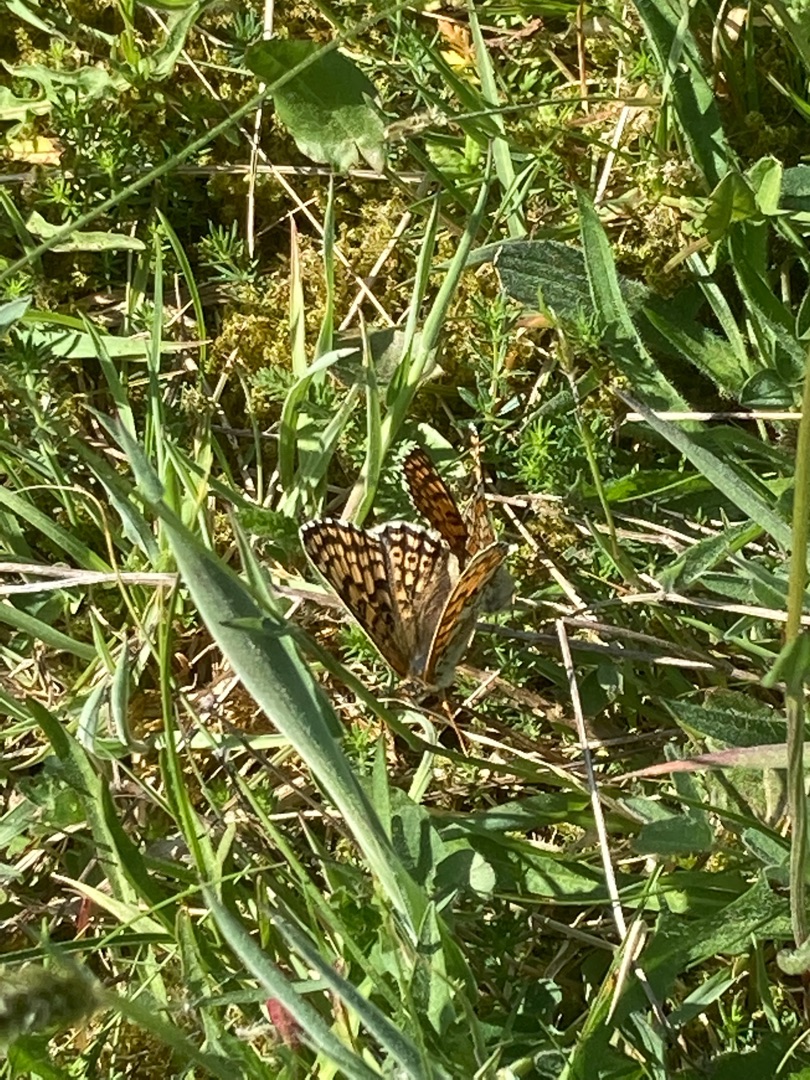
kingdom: Animalia
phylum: Arthropoda
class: Insecta
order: Lepidoptera
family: Nymphalidae
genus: Melitaea
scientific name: Melitaea cinxia
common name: Okkergul pletvinge
